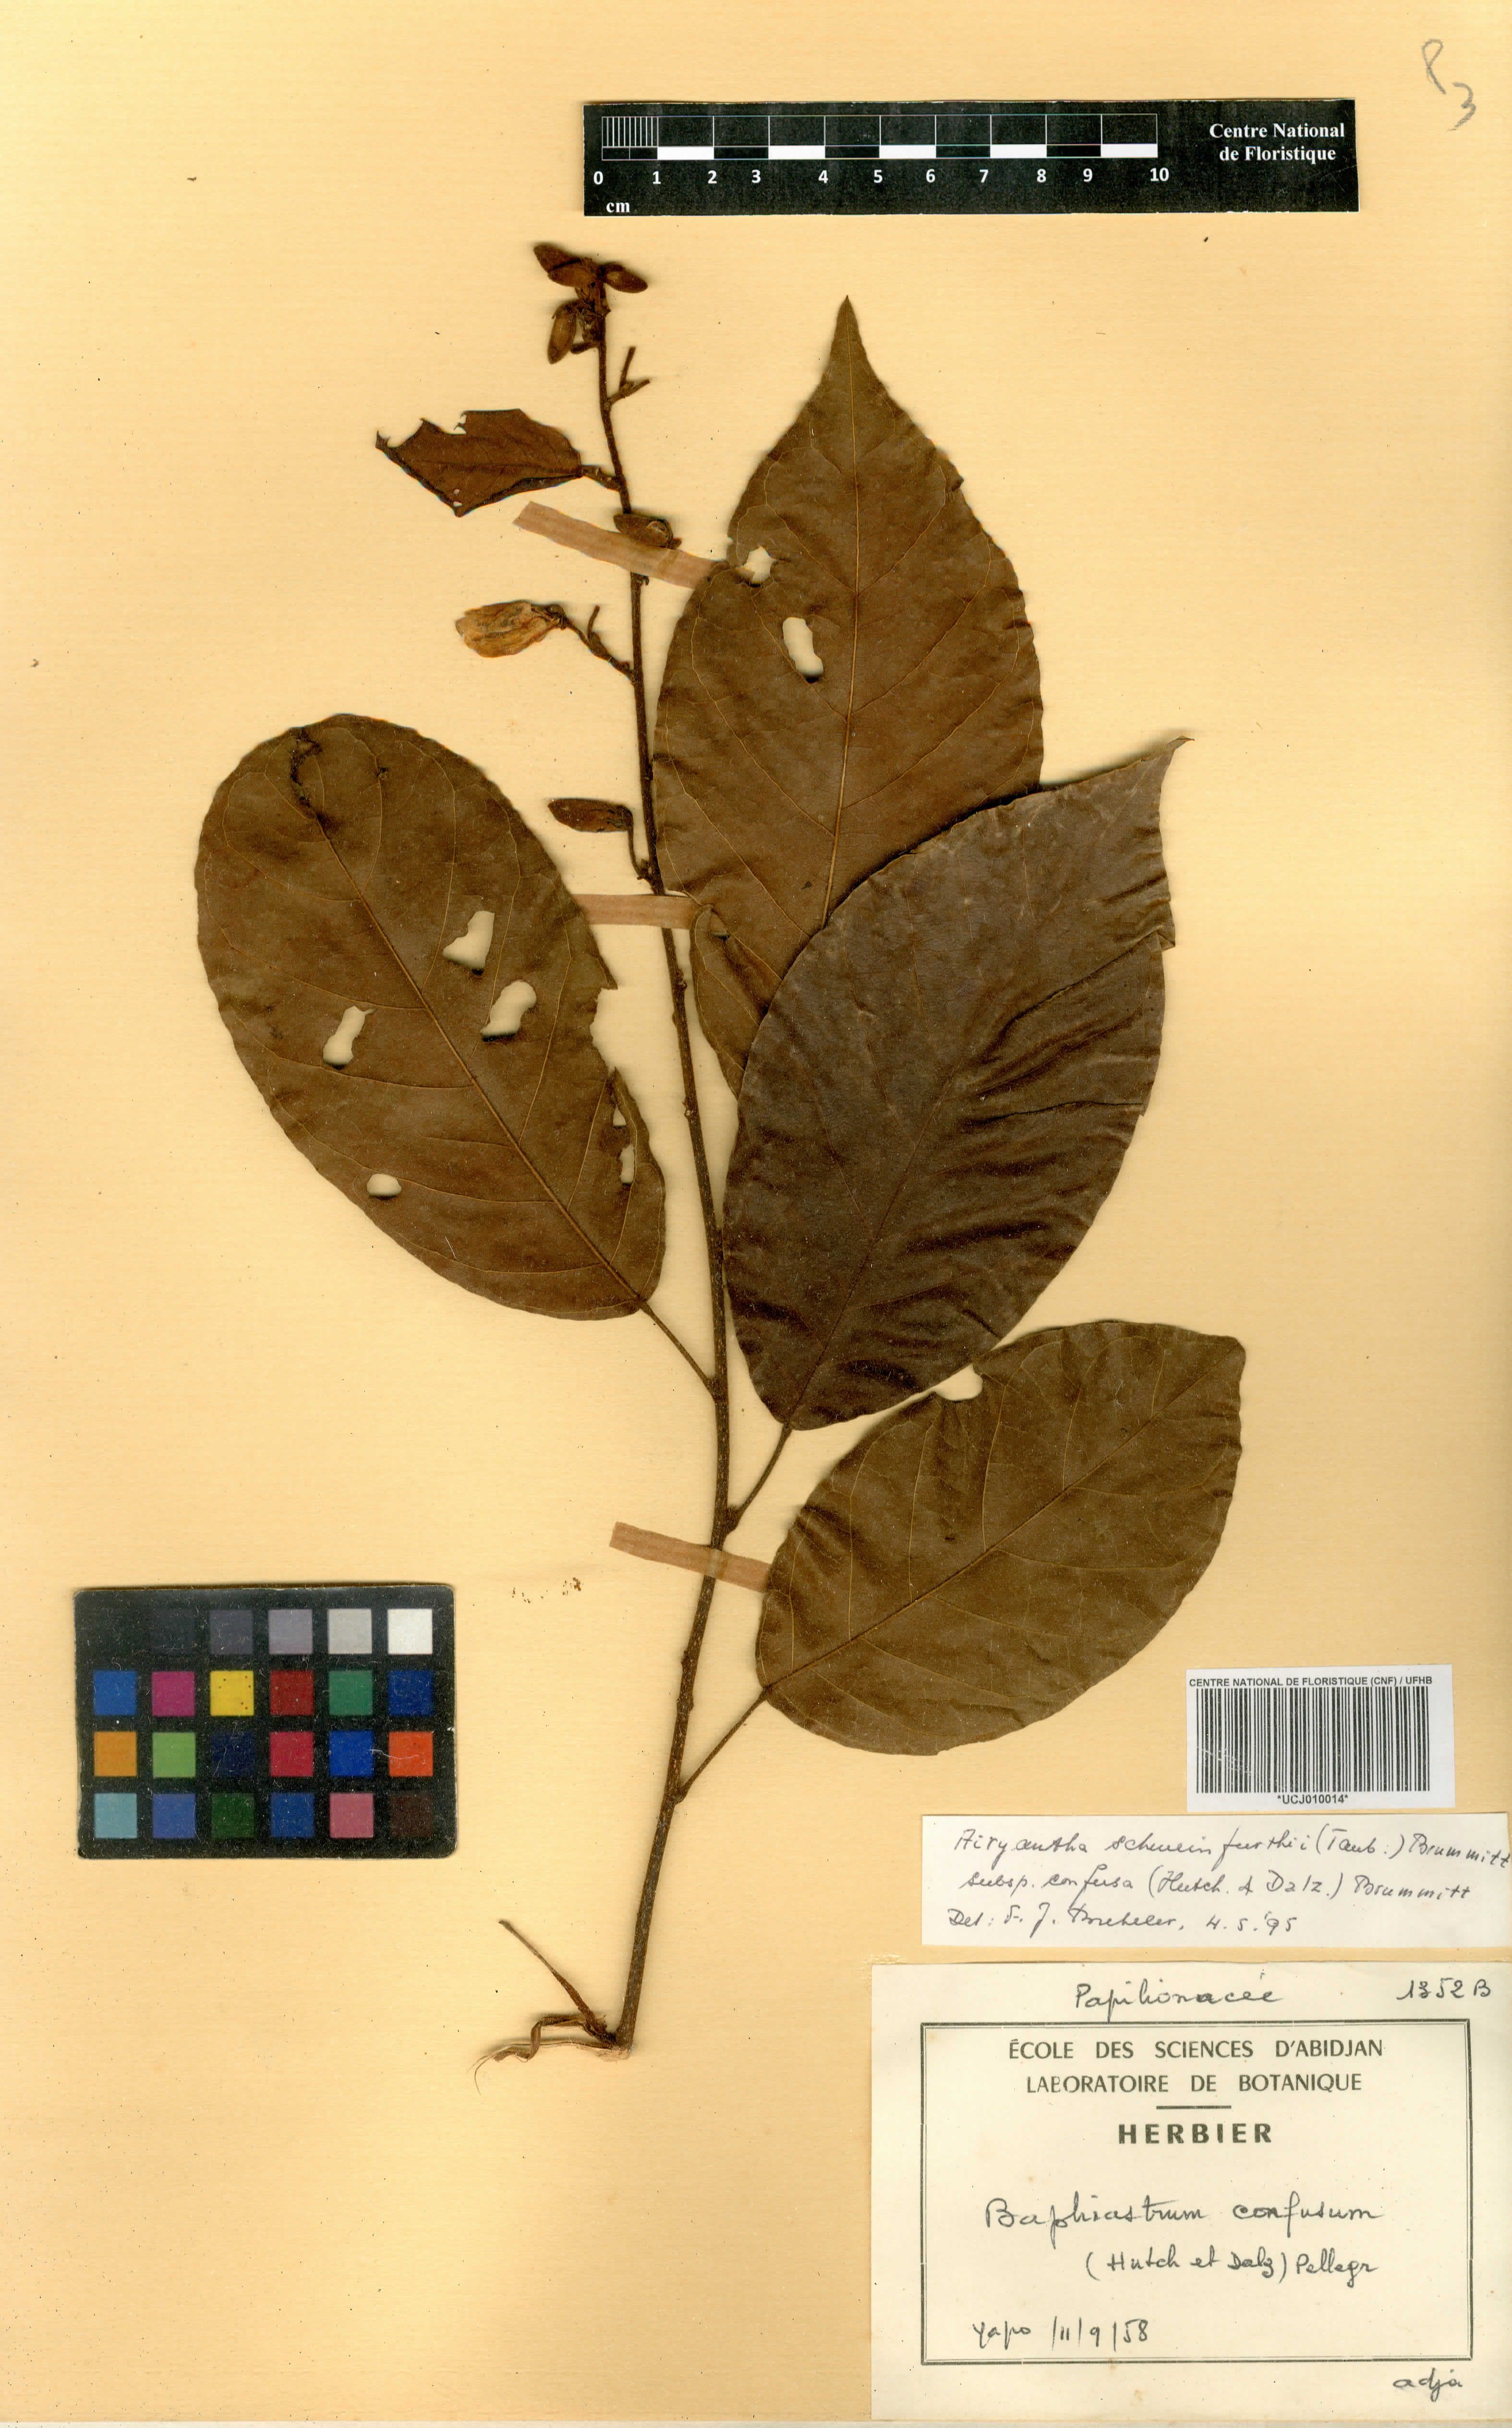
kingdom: Plantae
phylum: Tracheophyta
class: Magnoliopsida
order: Fabales
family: Fabaceae
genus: Airyantha
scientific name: Airyantha schweinfurthii
